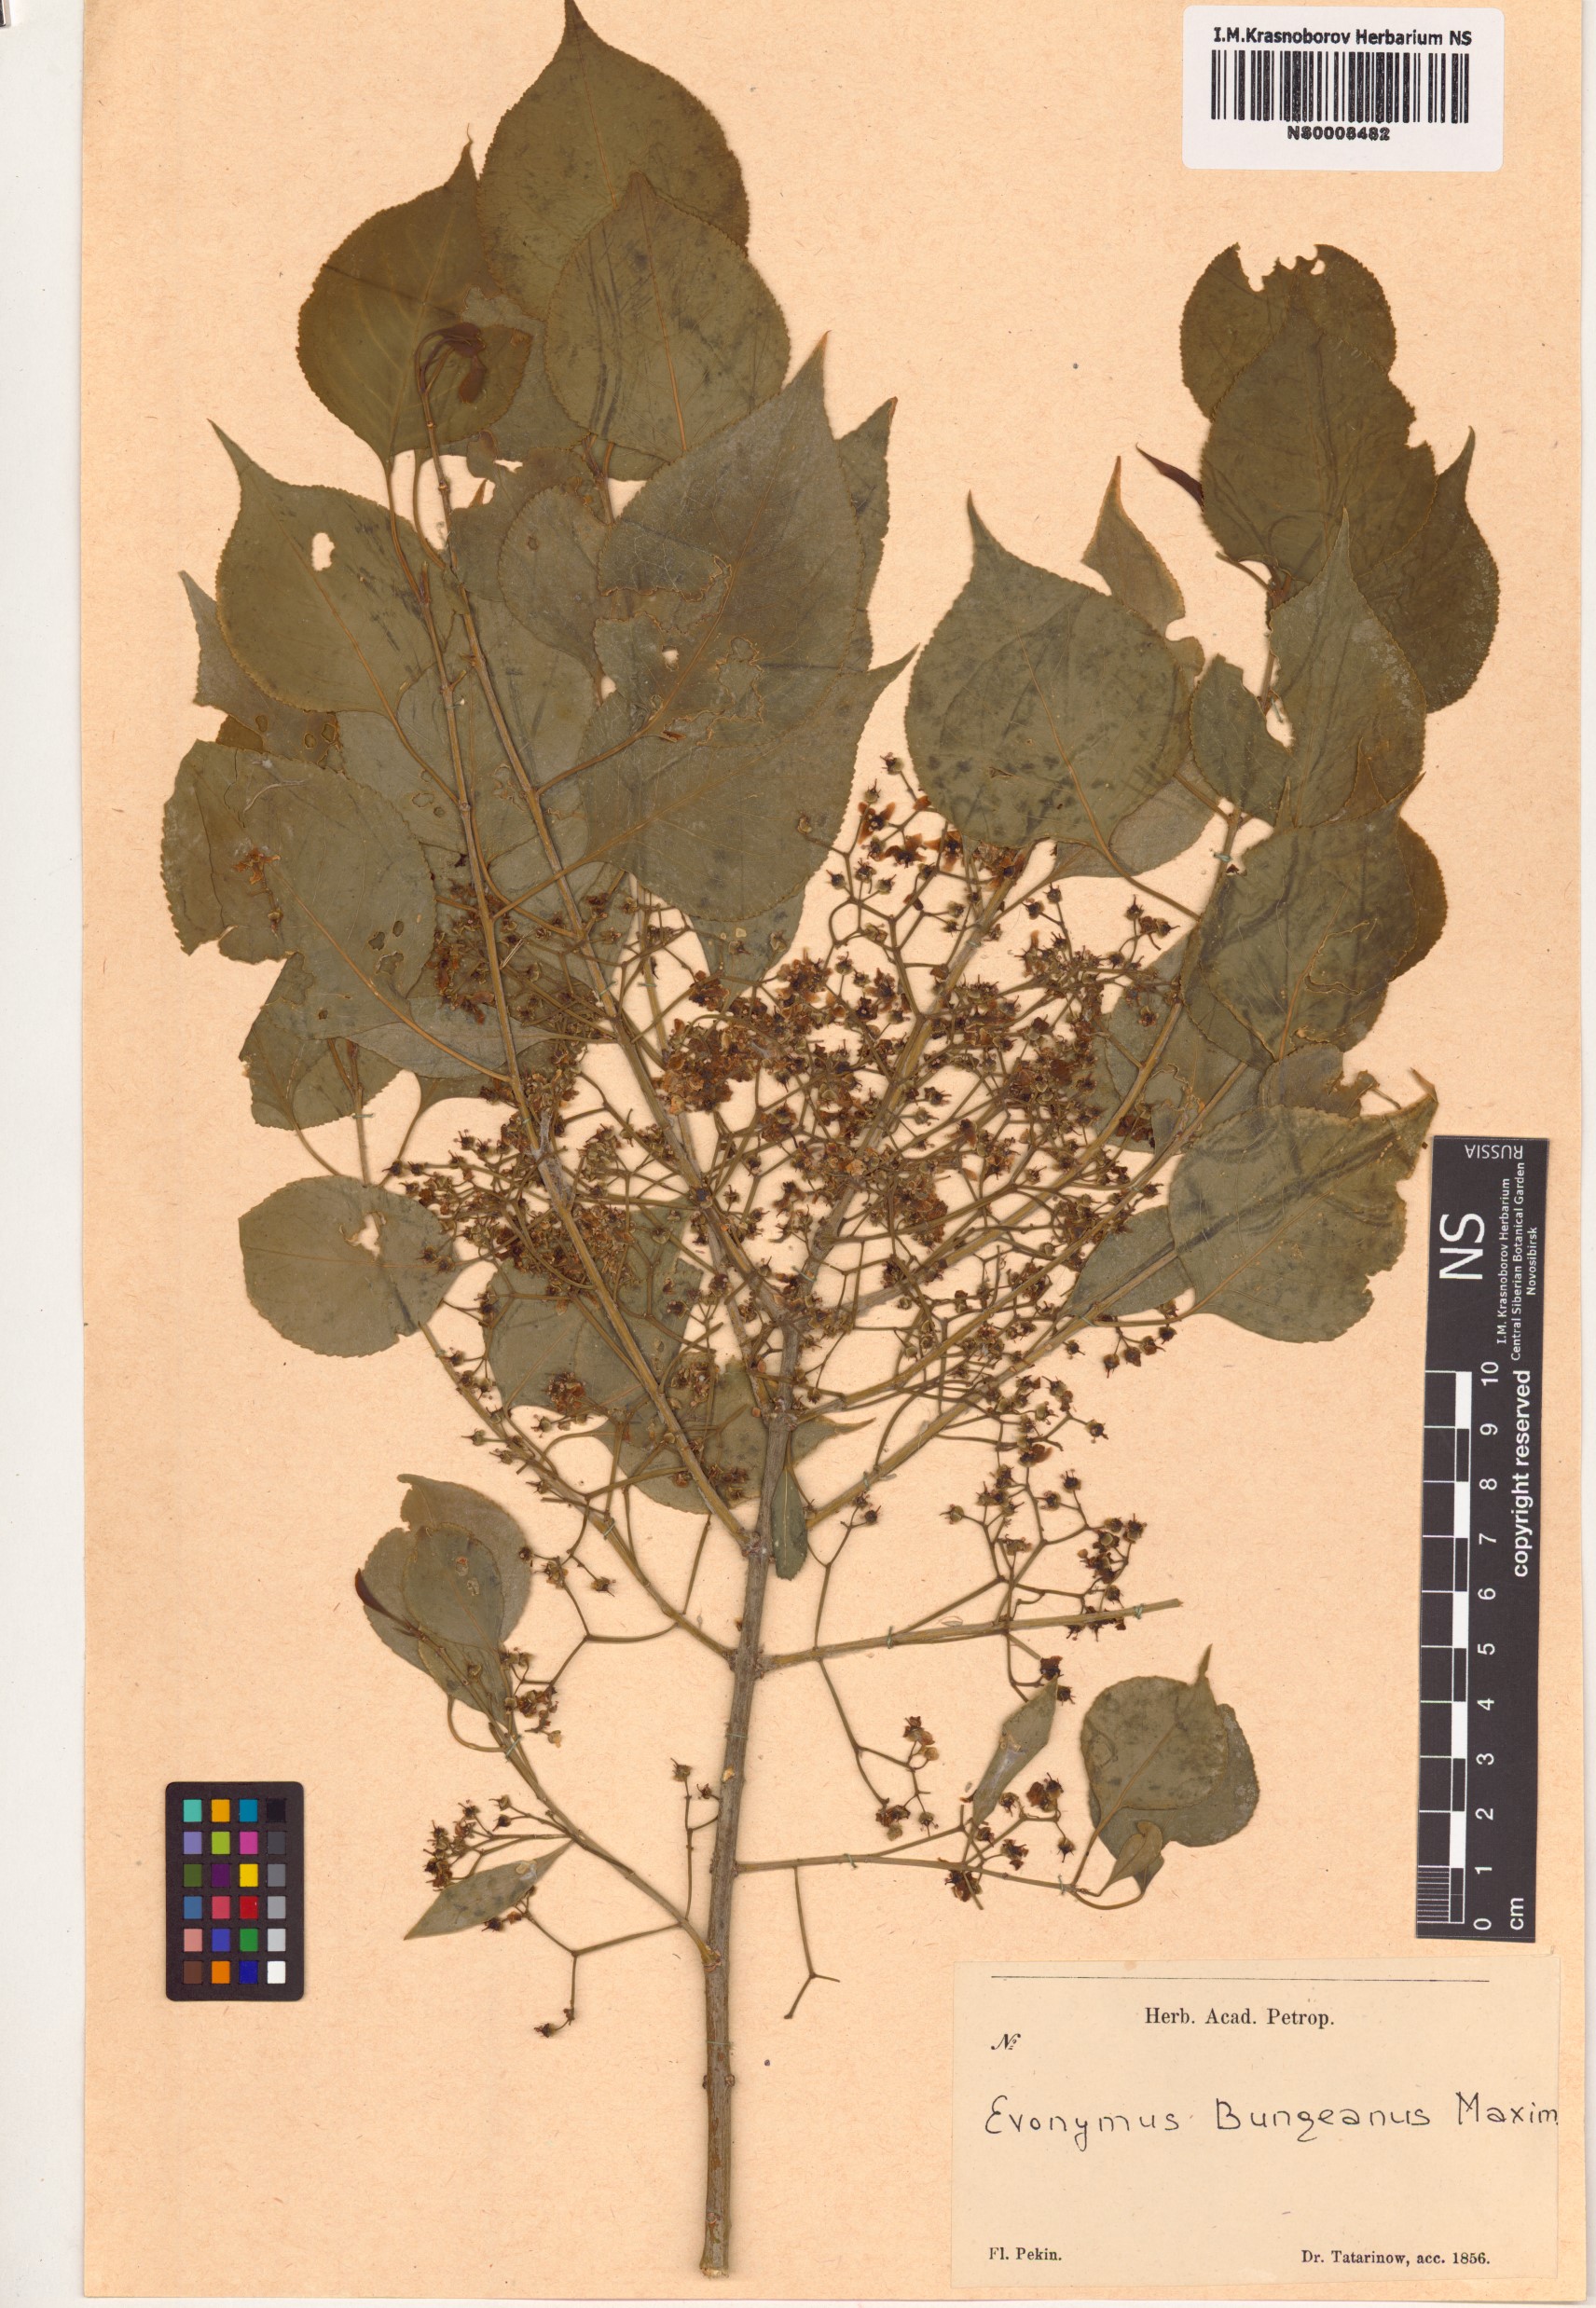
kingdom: Plantae
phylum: Tracheophyta
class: Magnoliopsida
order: Celastrales
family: Celastraceae
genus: Euonymus
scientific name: Euonymus maackii
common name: Hamilton's spindletree
